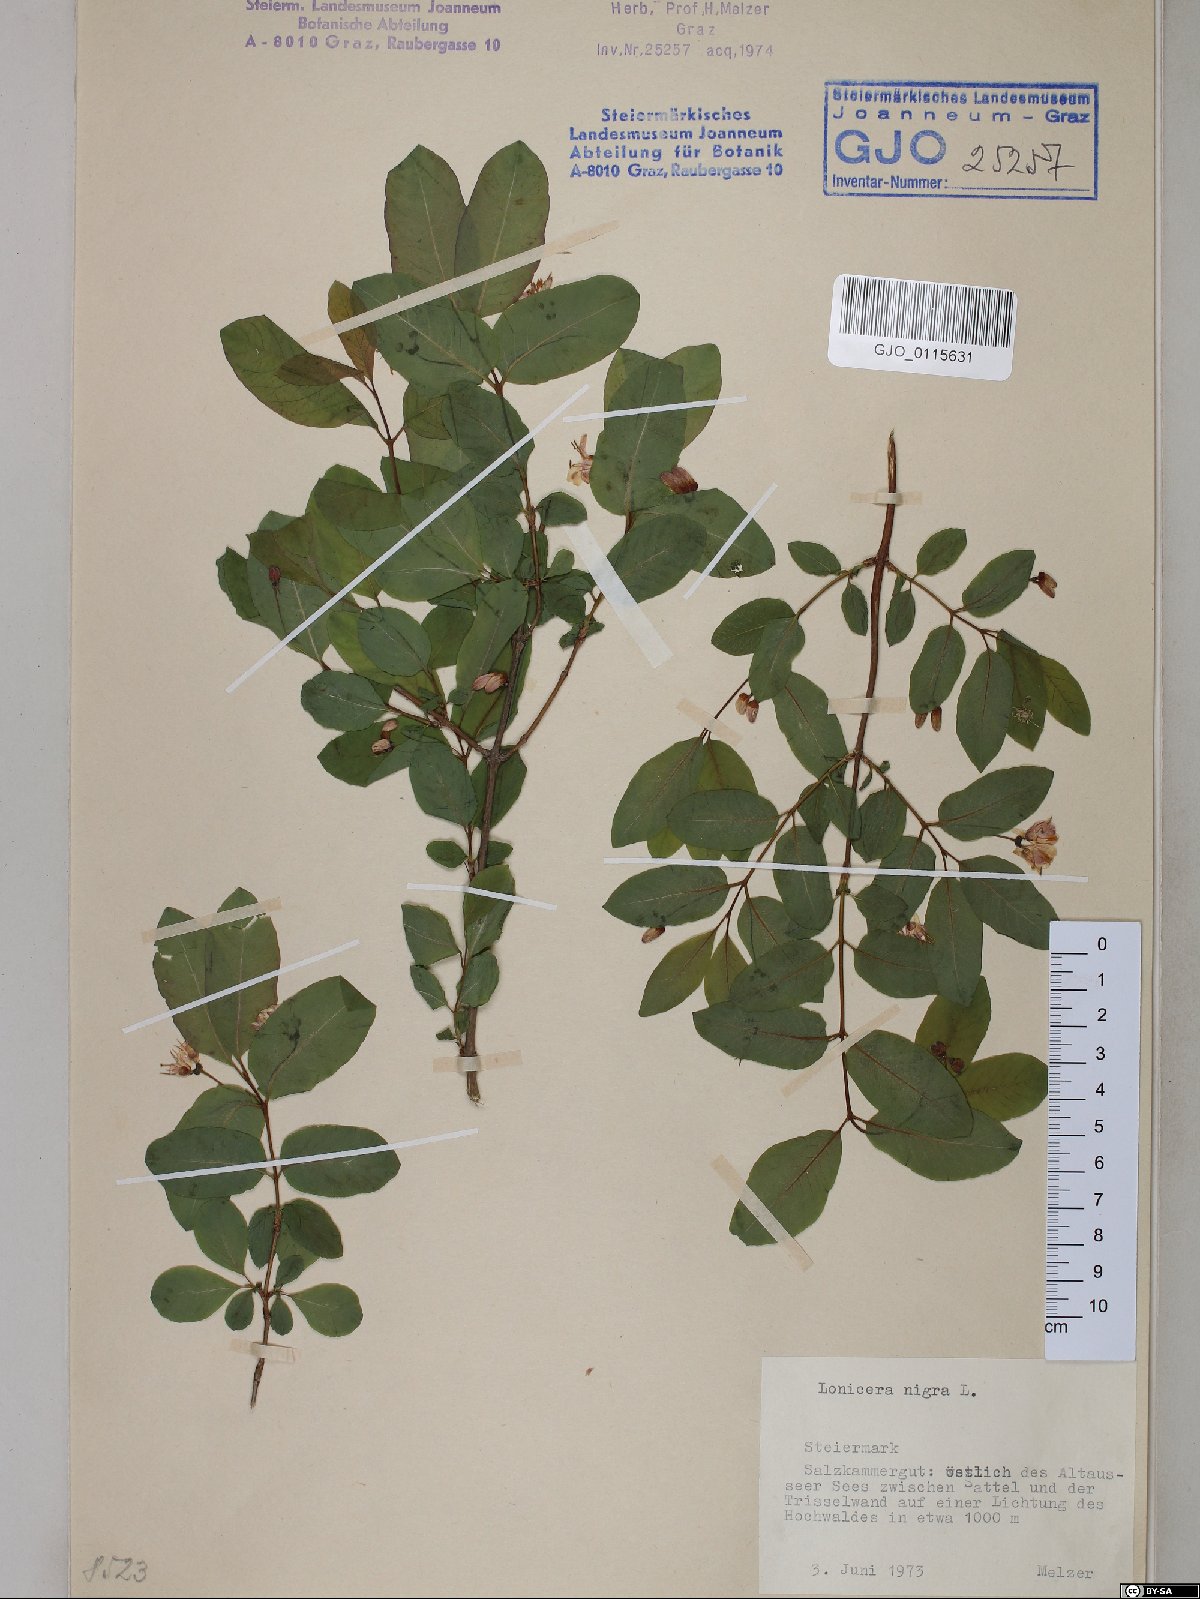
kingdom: Plantae
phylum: Tracheophyta
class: Magnoliopsida
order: Dipsacales
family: Caprifoliaceae
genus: Lonicera
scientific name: Lonicera nigra
